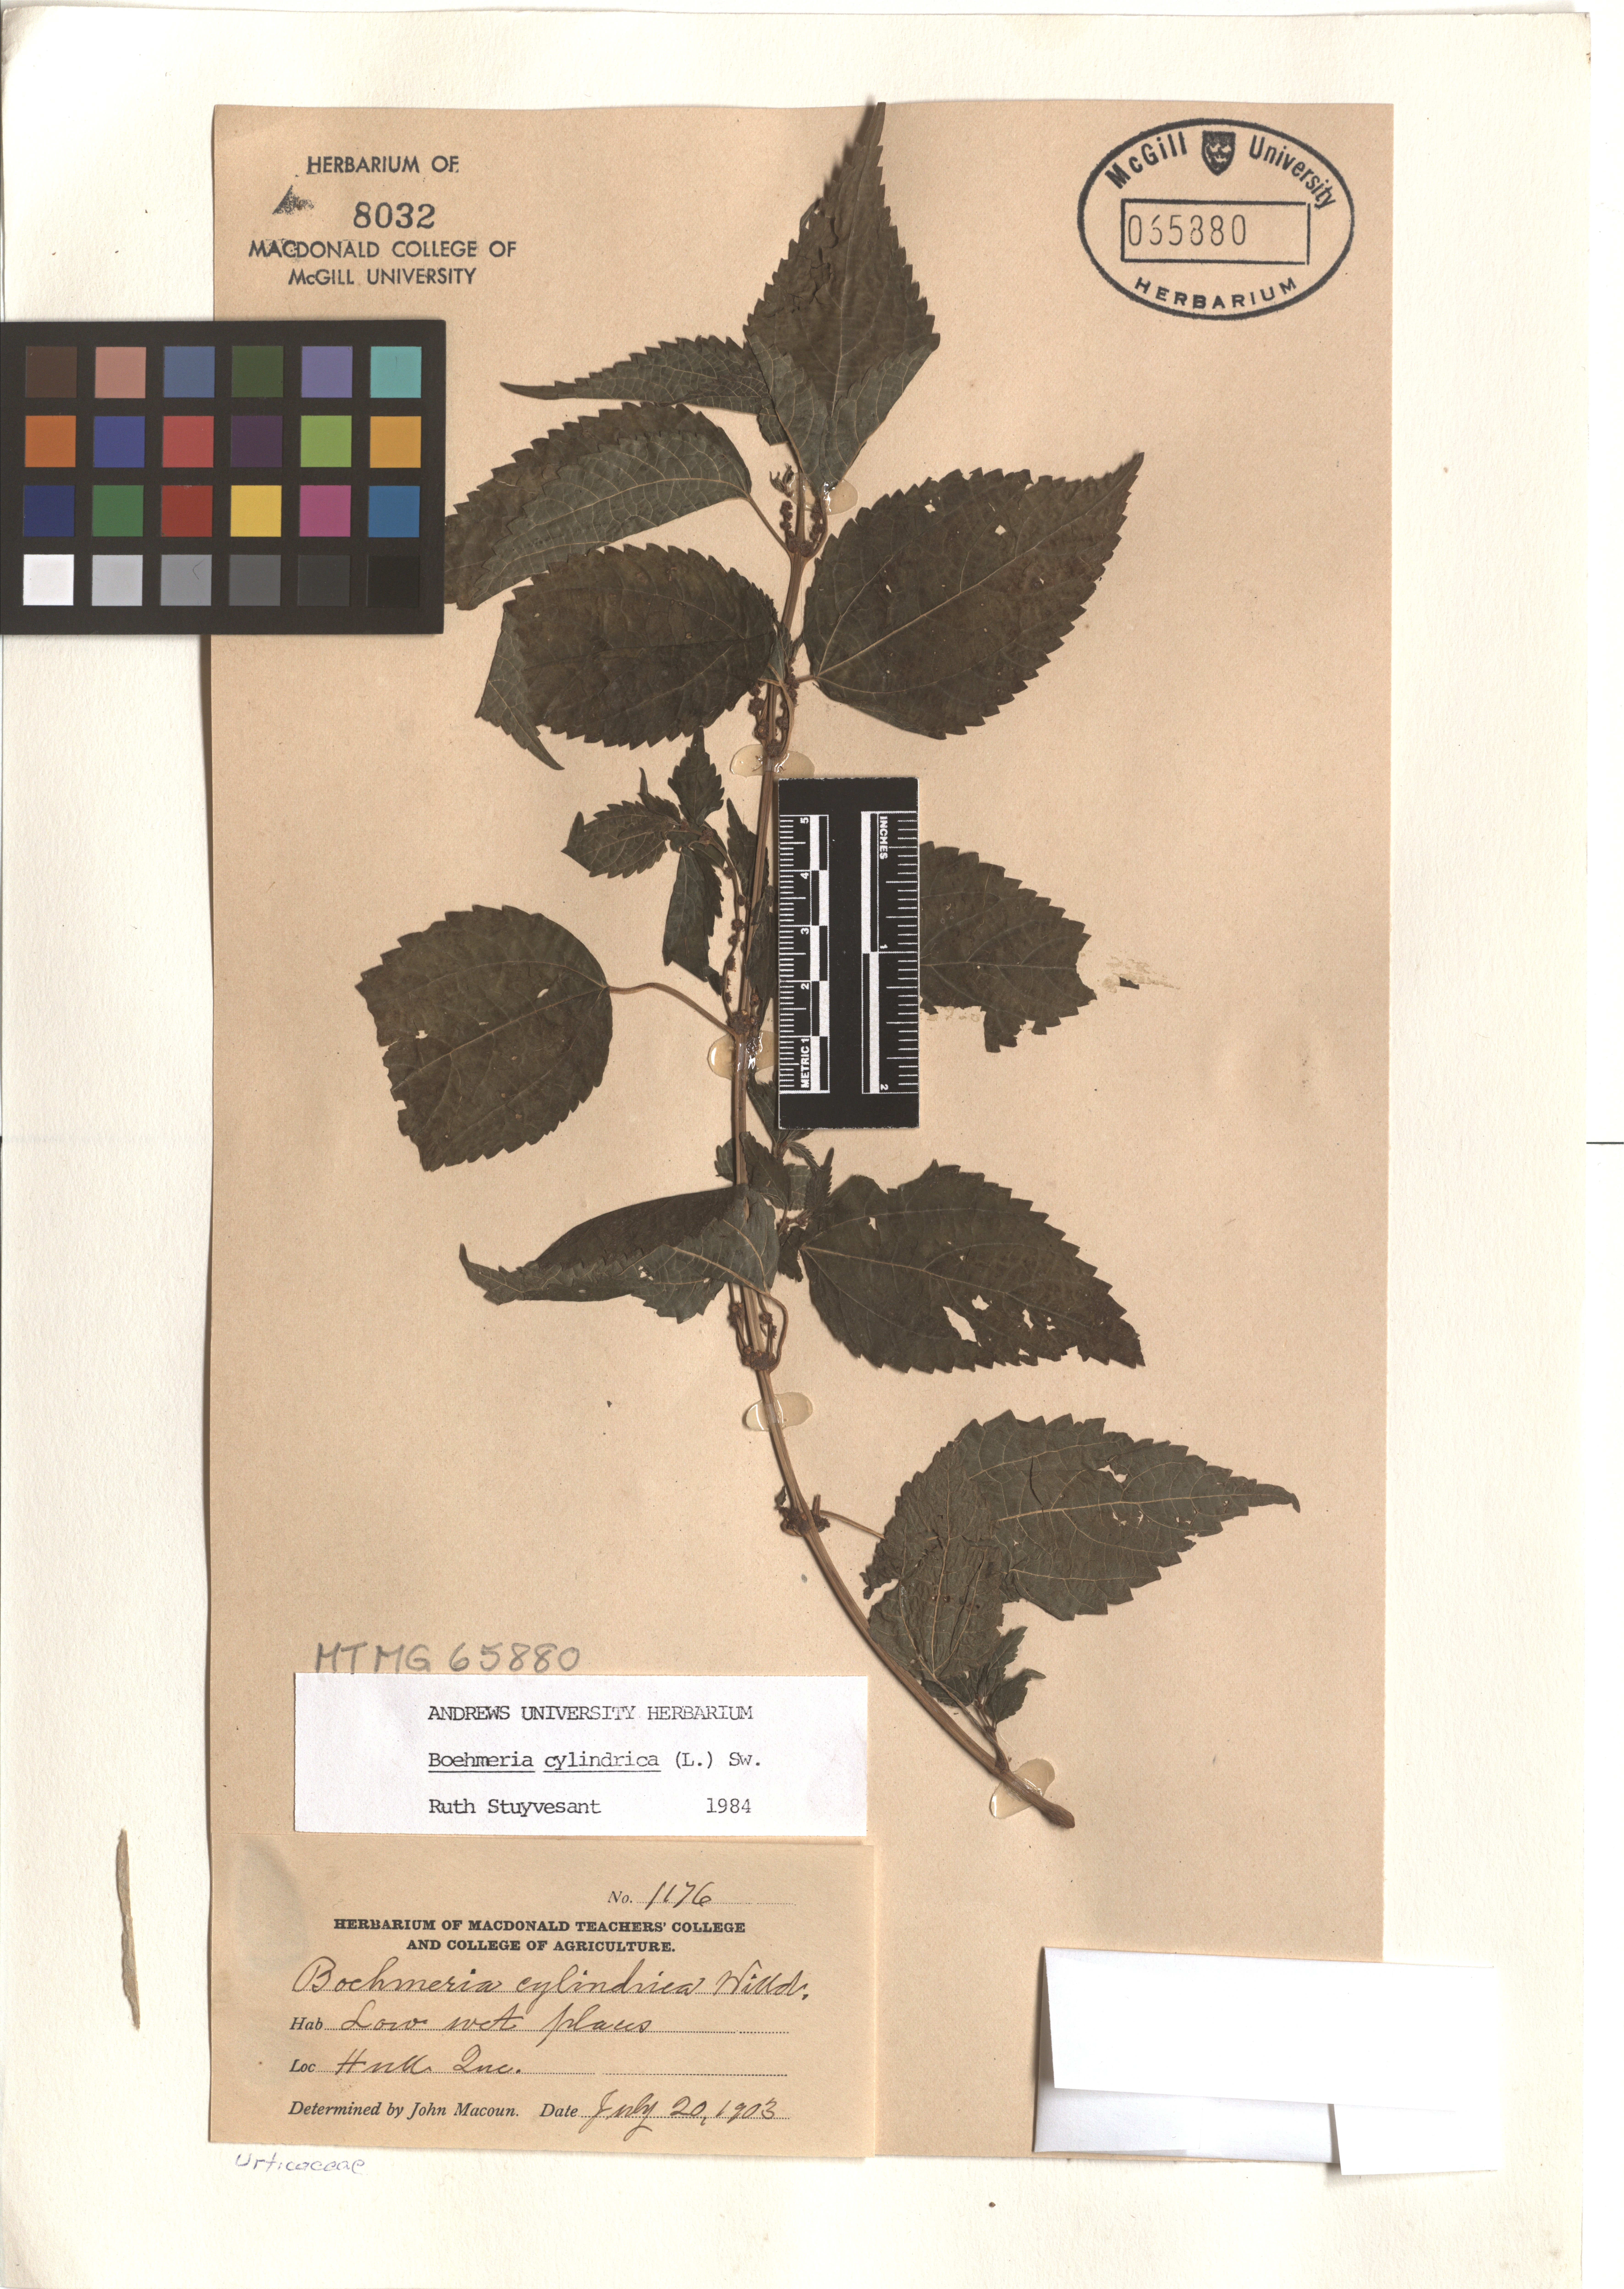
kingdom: Plantae
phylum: Tracheophyta
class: Magnoliopsida
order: Rosales
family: Urticaceae
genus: Boehmeria
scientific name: Boehmeria cylindrica
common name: Bog-hemp
